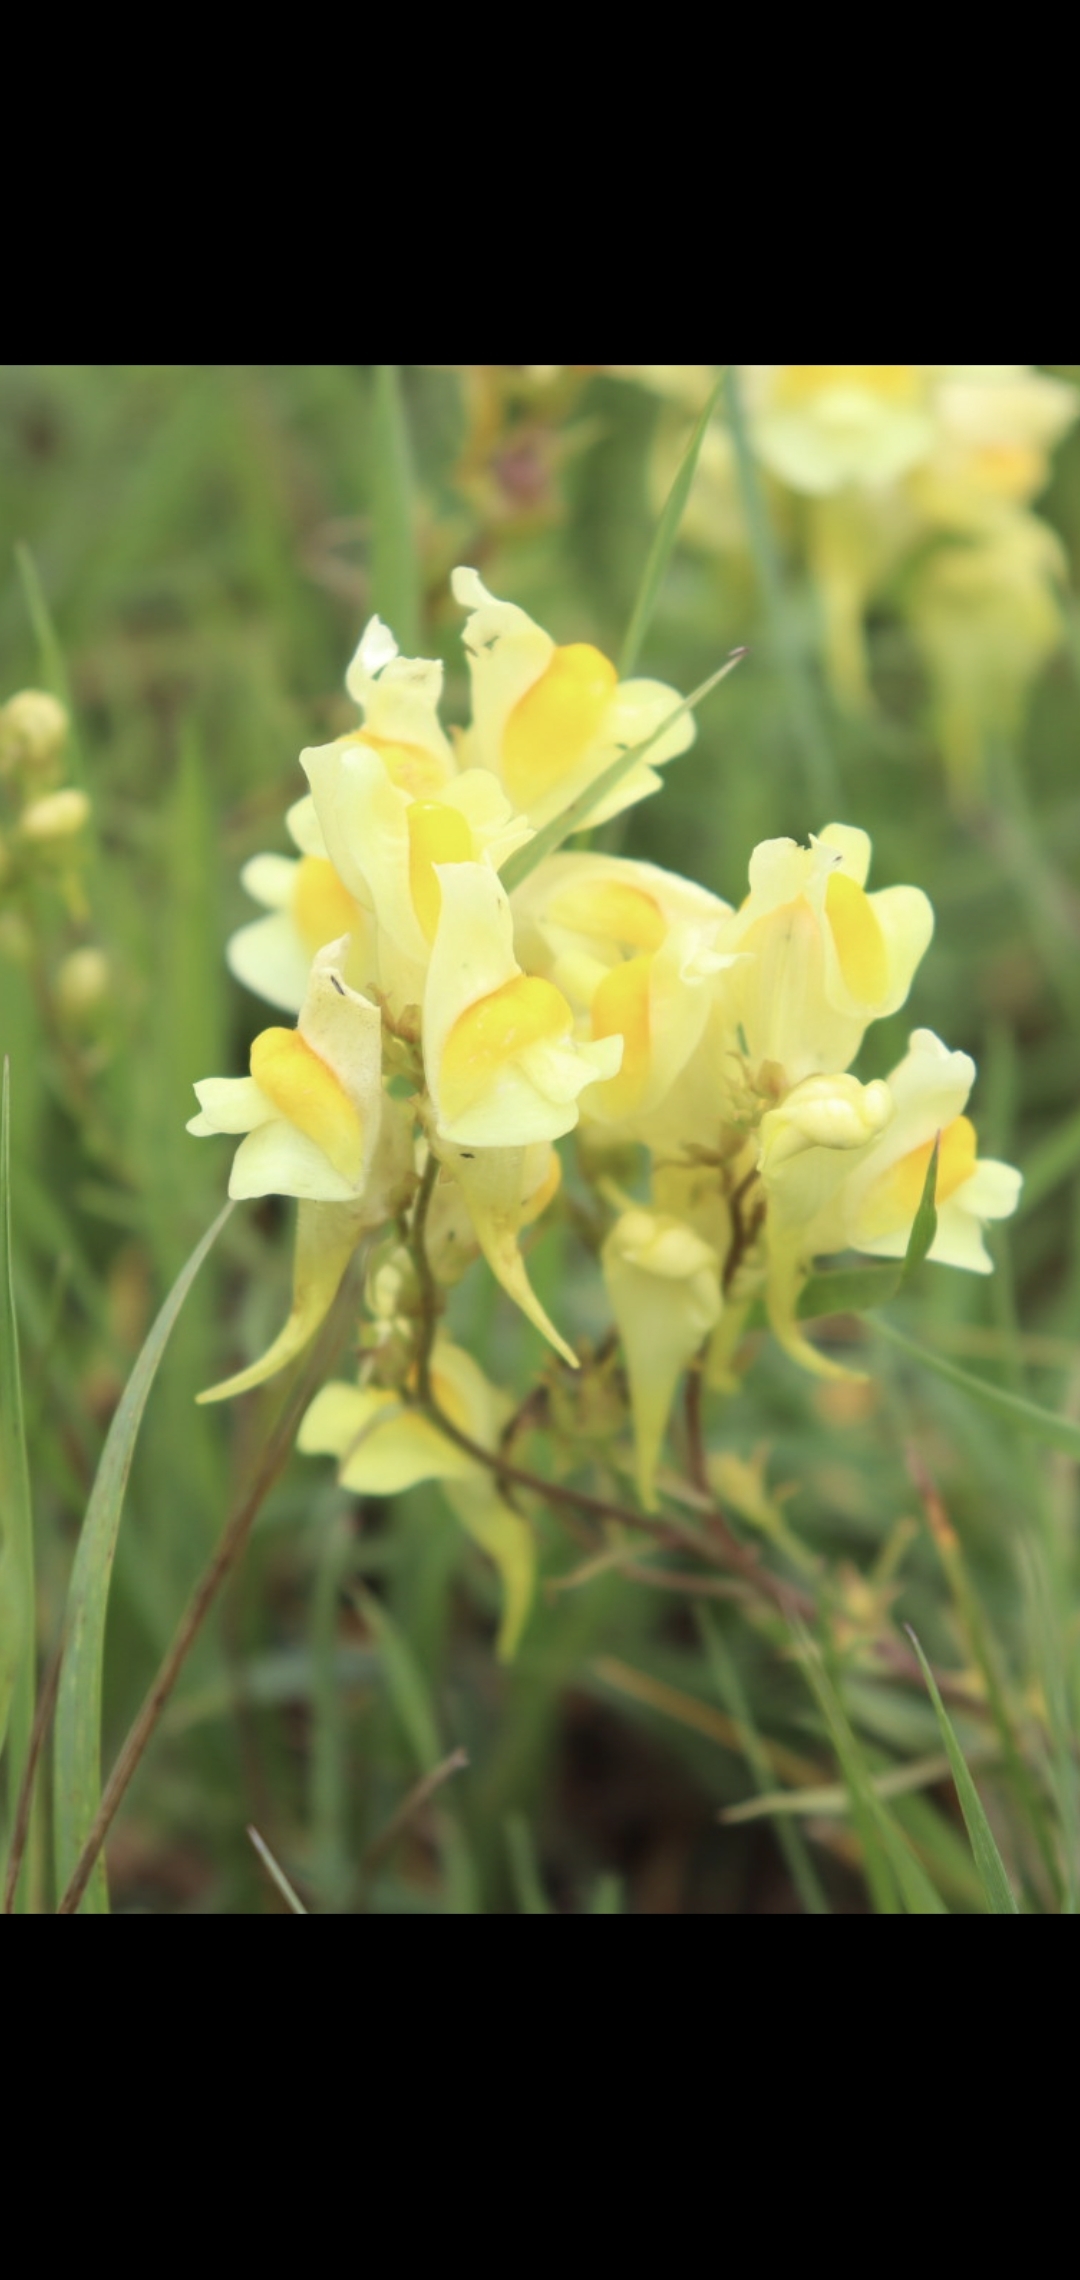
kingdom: Plantae
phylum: Tracheophyta
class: Magnoliopsida
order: Lamiales
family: Plantaginaceae
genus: Linaria
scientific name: Linaria vulgaris
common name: Almindelig torskemund
